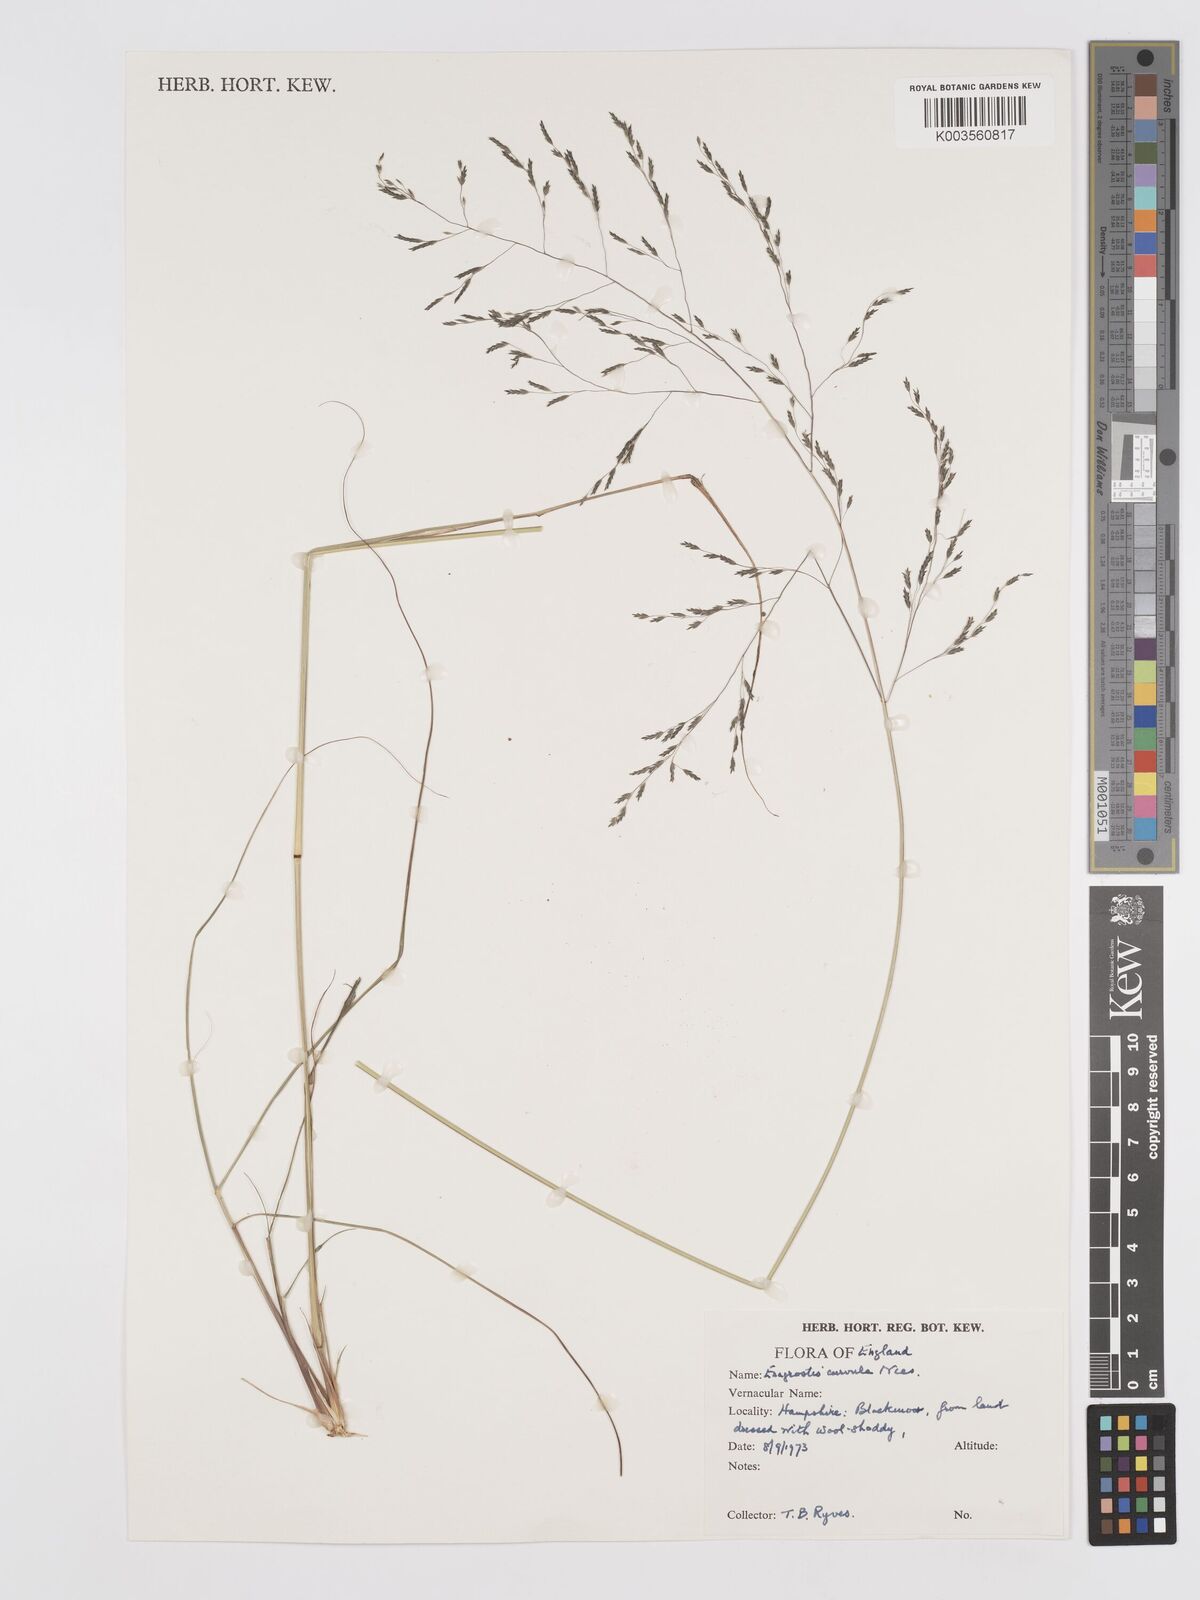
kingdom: Plantae
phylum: Tracheophyta
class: Liliopsida
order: Poales
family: Poaceae
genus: Eragrostis
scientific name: Eragrostis curvula
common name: African love-grass
